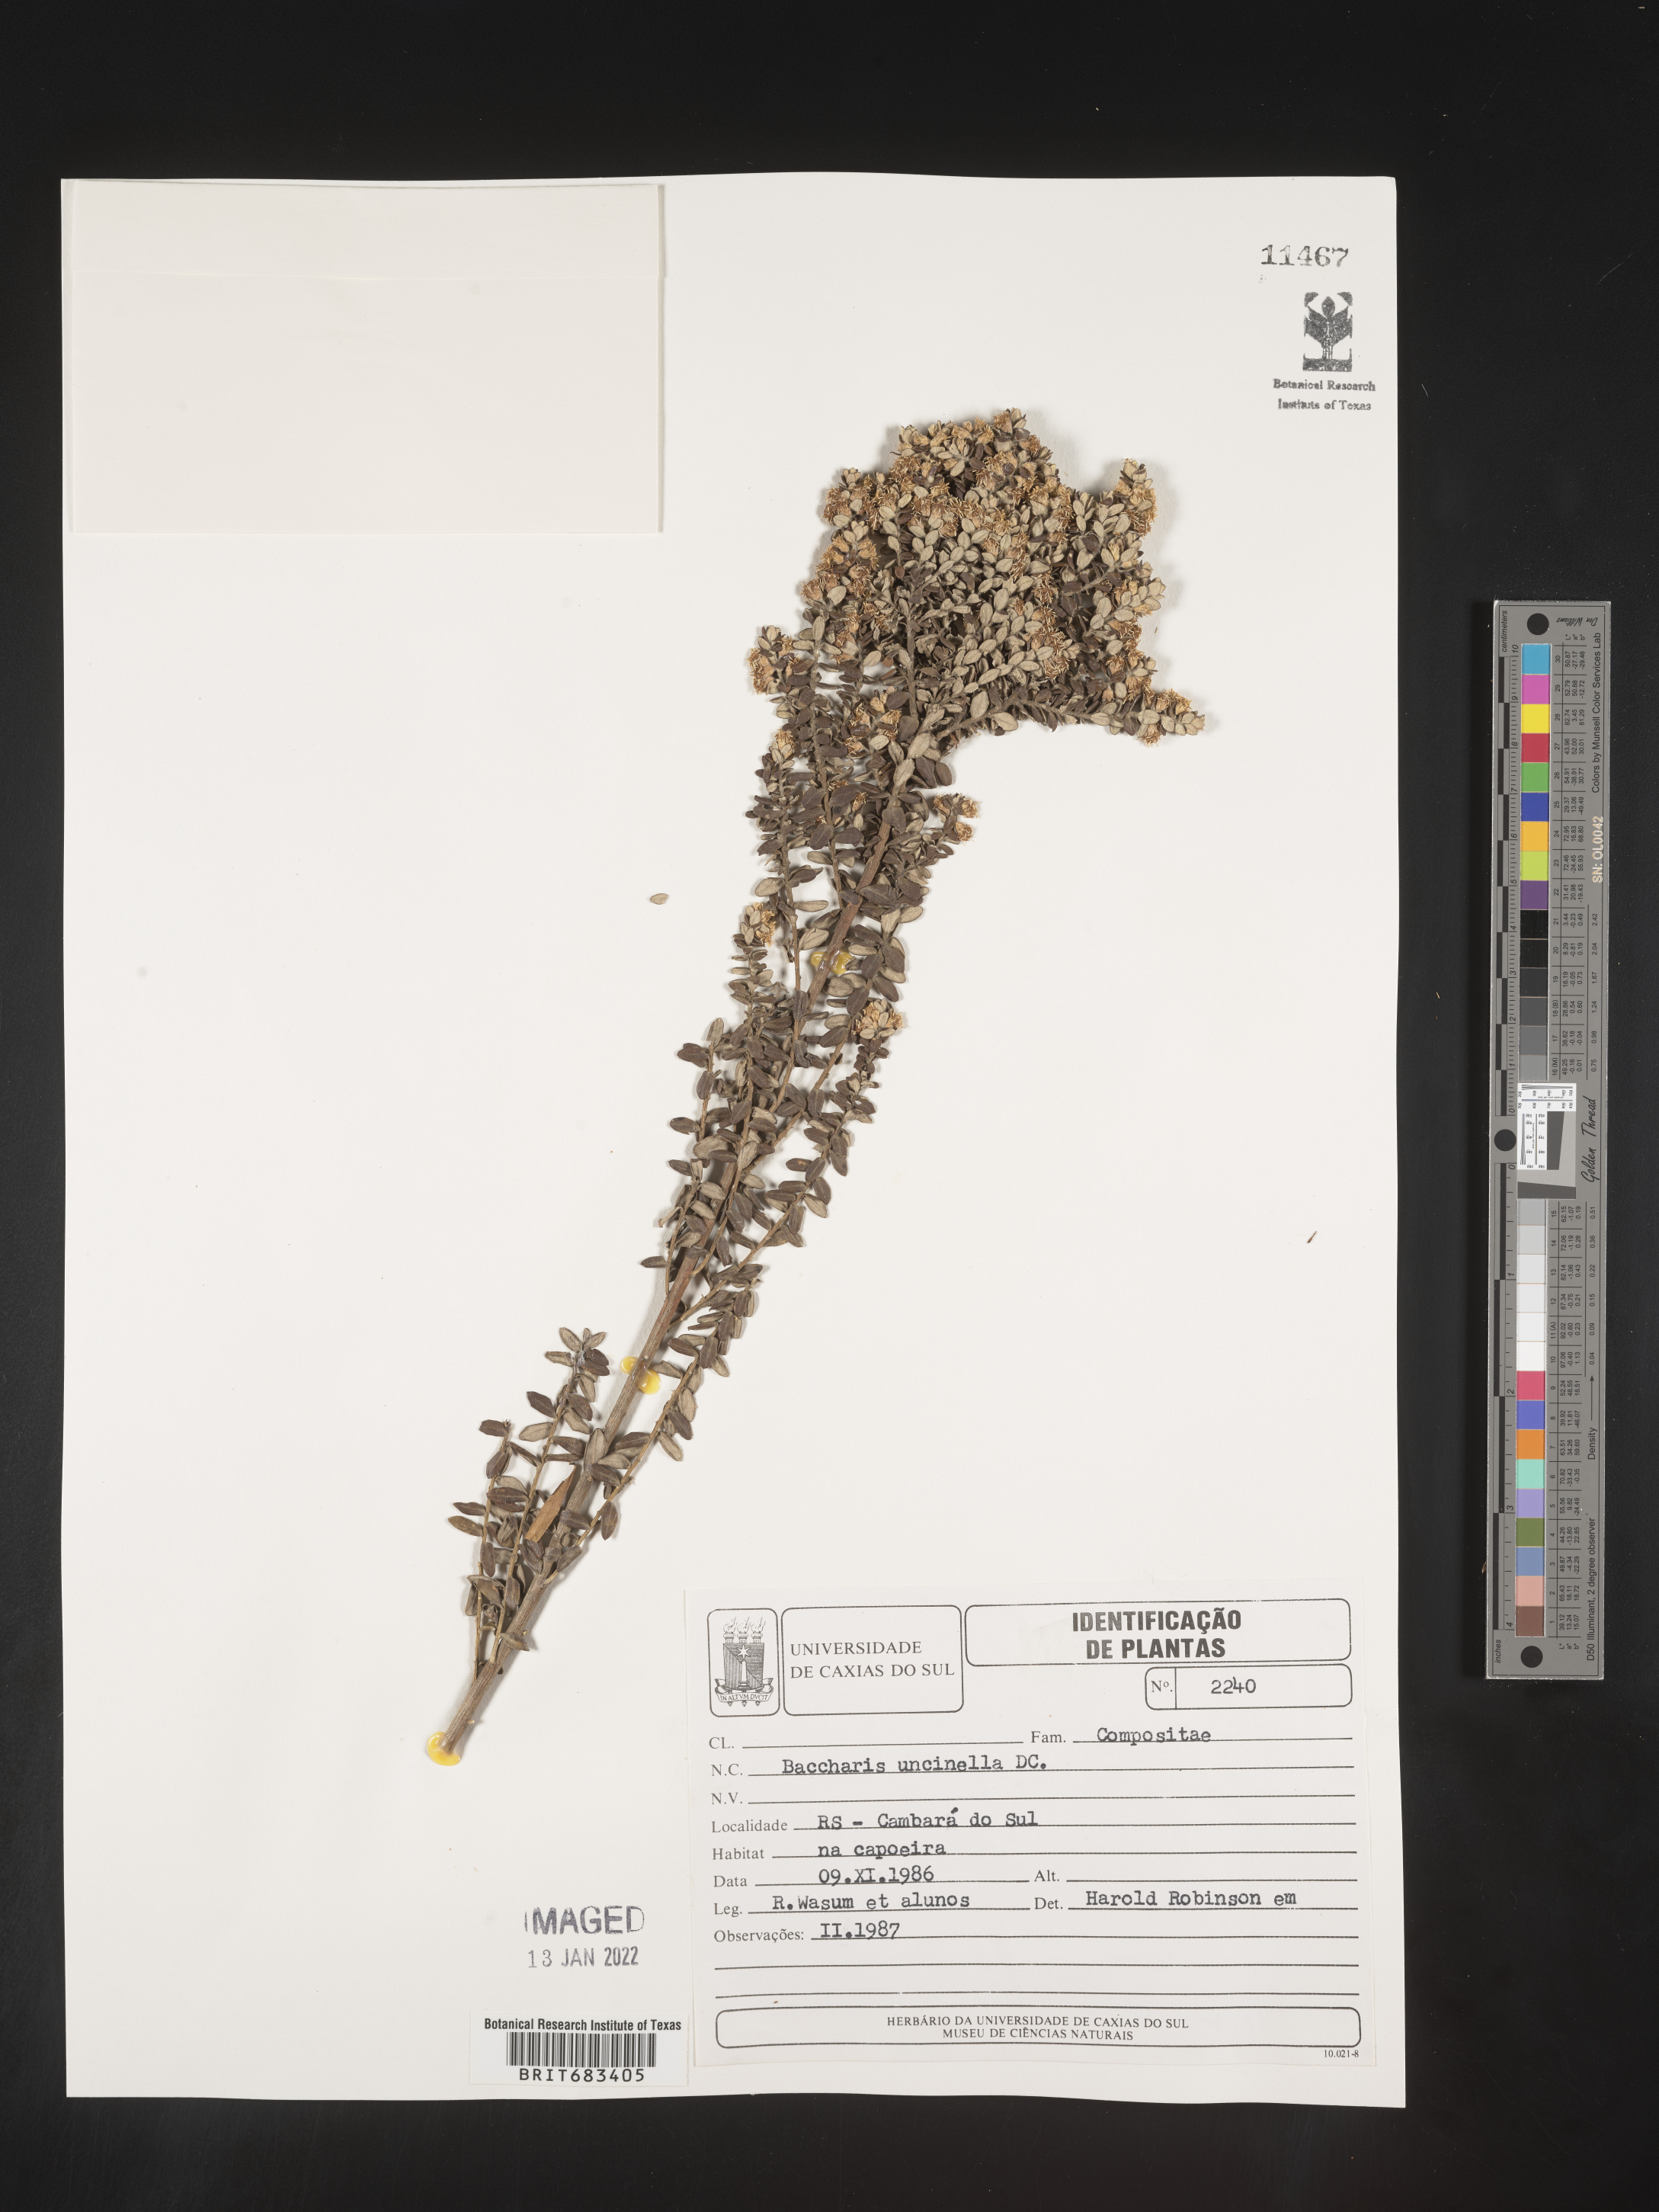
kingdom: Plantae
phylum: Tracheophyta
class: Magnoliopsida
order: Asterales
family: Asteraceae
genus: Baccharis
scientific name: Baccharis
